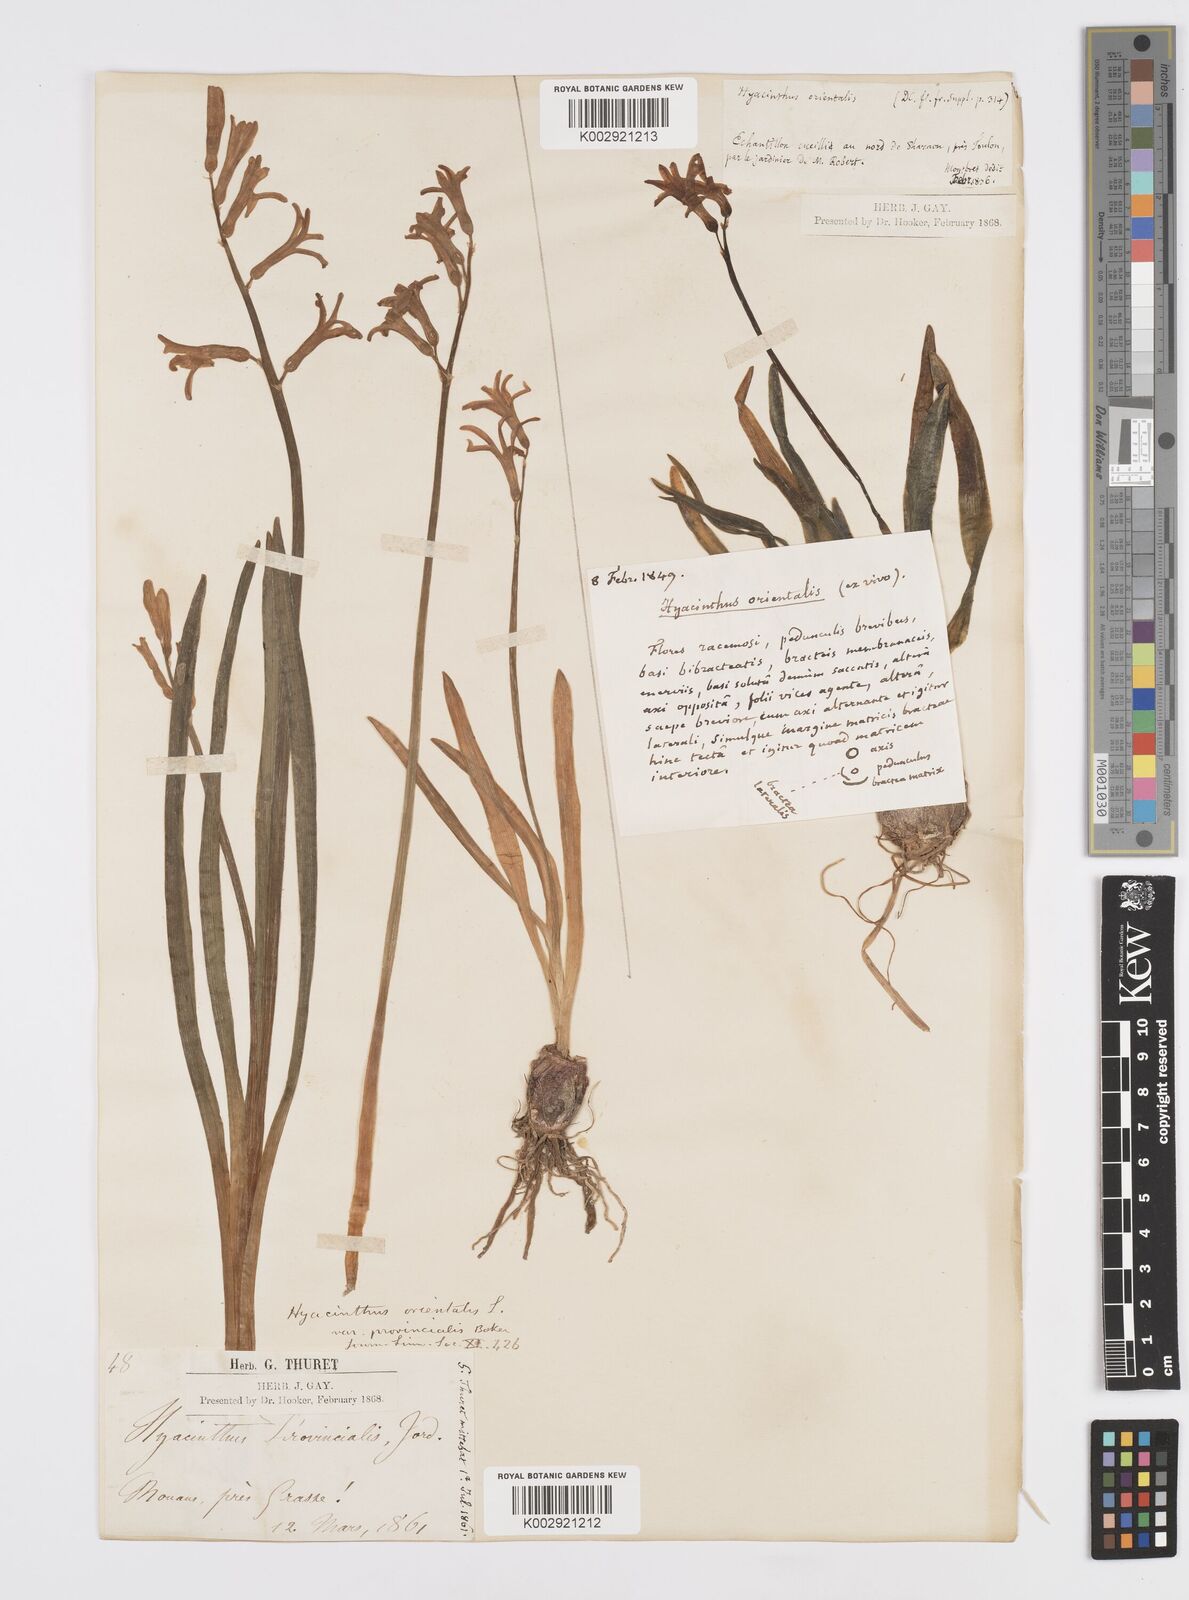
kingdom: Plantae
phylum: Tracheophyta
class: Liliopsida
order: Asparagales
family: Asparagaceae
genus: Hyacinthus
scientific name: Hyacinthus orientalis
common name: Hyacinth
